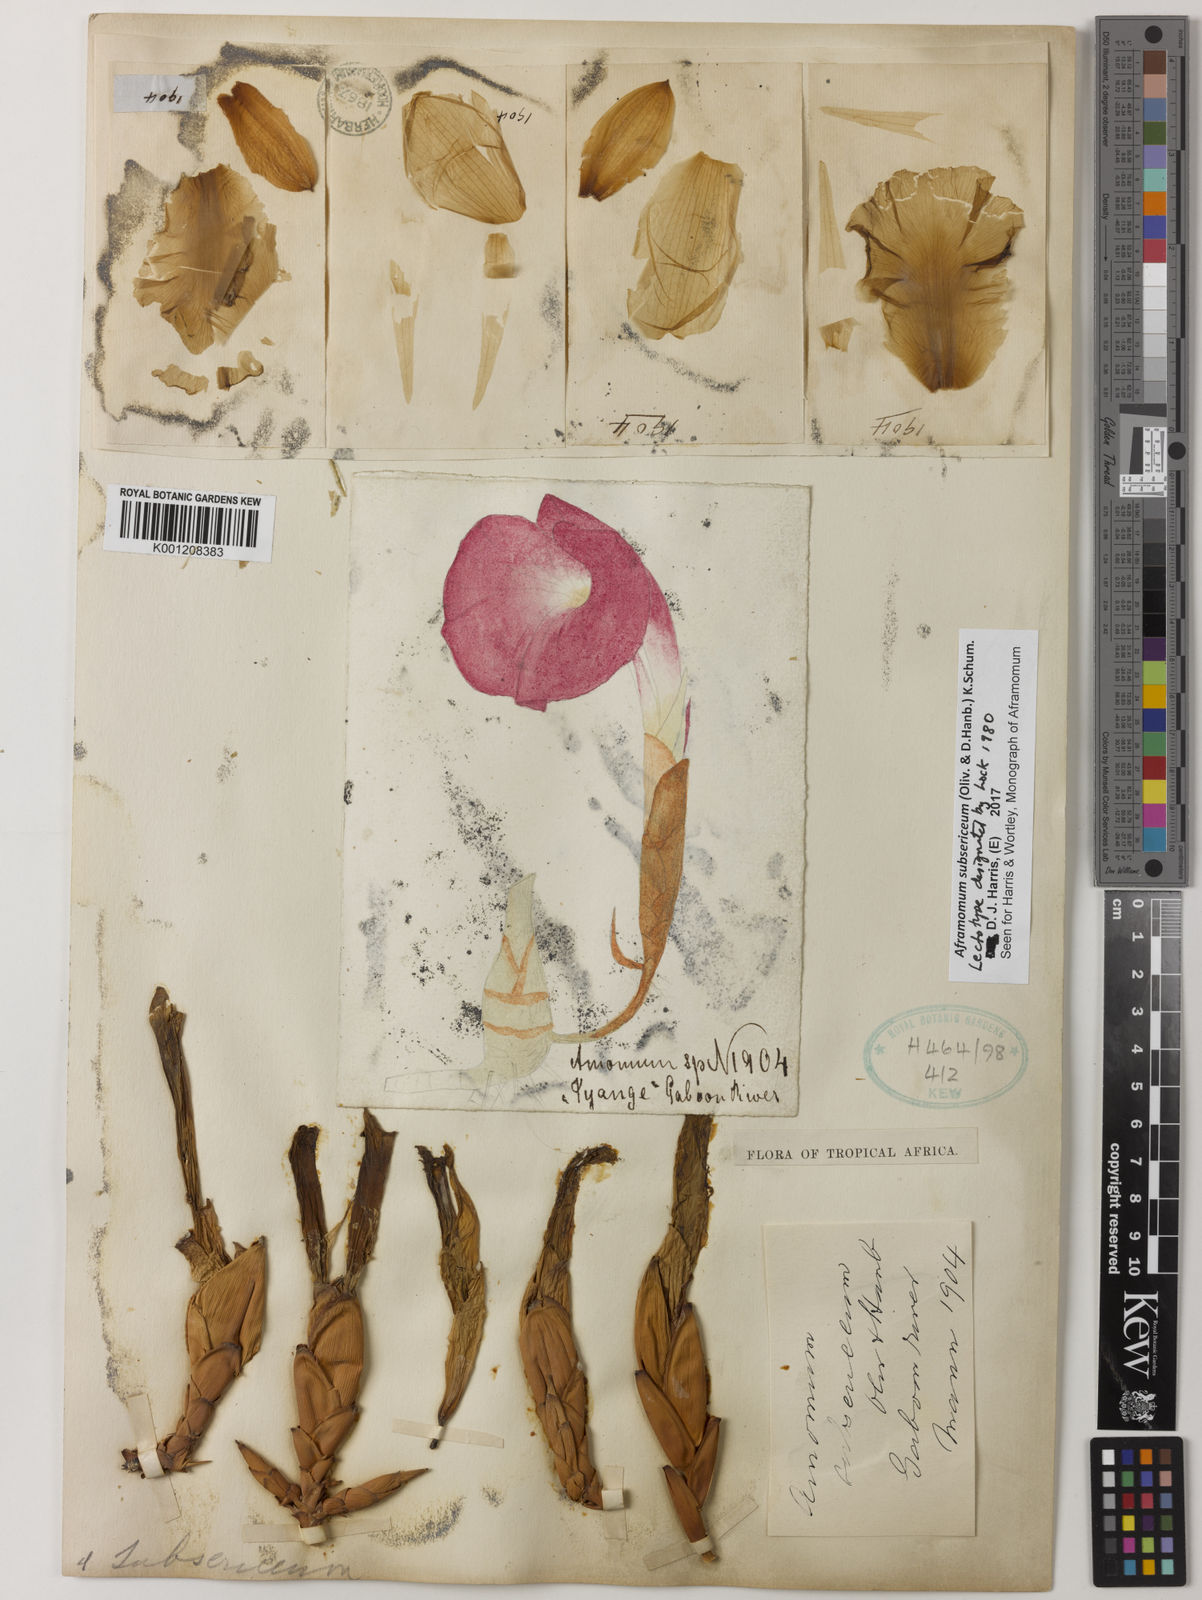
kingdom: Plantae
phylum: Tracheophyta
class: Liliopsida
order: Zingiberales
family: Zingiberaceae
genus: Aframomum
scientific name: Aframomum subsericeum
